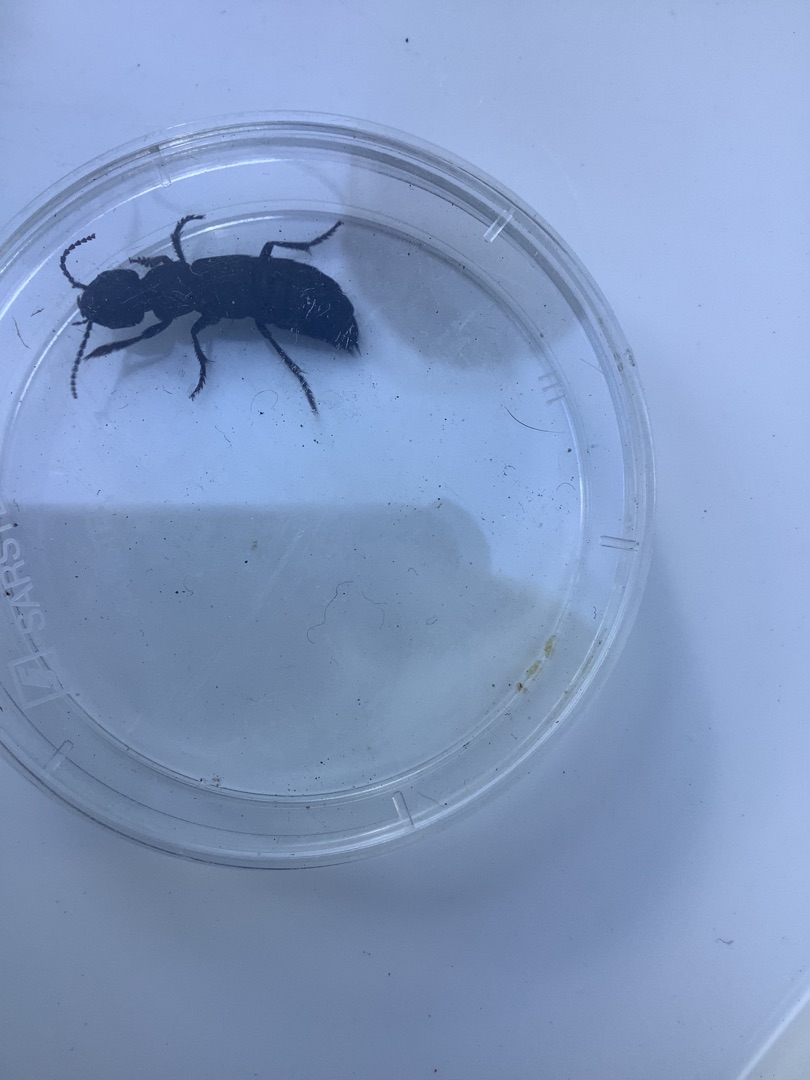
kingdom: Animalia
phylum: Arthropoda
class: Insecta
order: Coleoptera
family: Staphylinidae
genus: Ocypus
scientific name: Ocypus olens
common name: Stor rovbille
